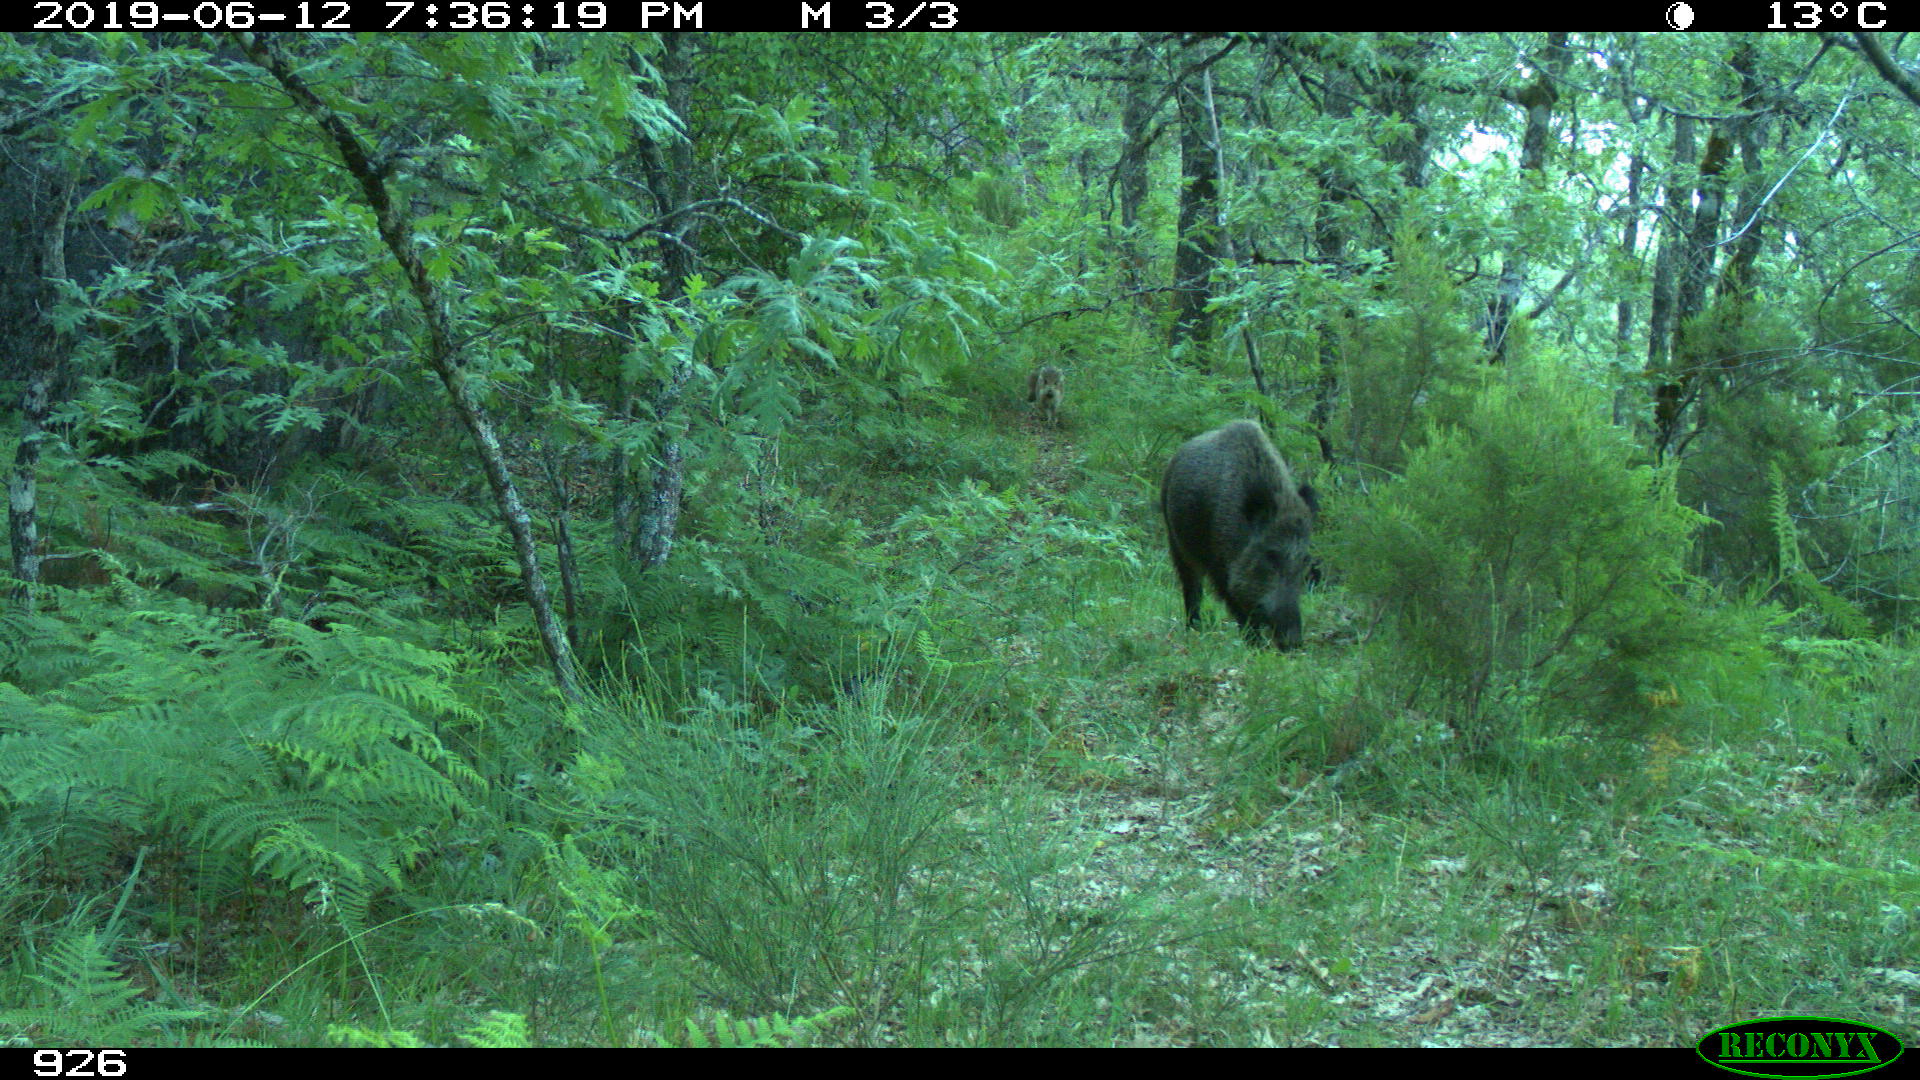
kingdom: Animalia
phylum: Chordata
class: Mammalia
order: Artiodactyla
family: Suidae
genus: Sus
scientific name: Sus scrofa
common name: Wild boar
